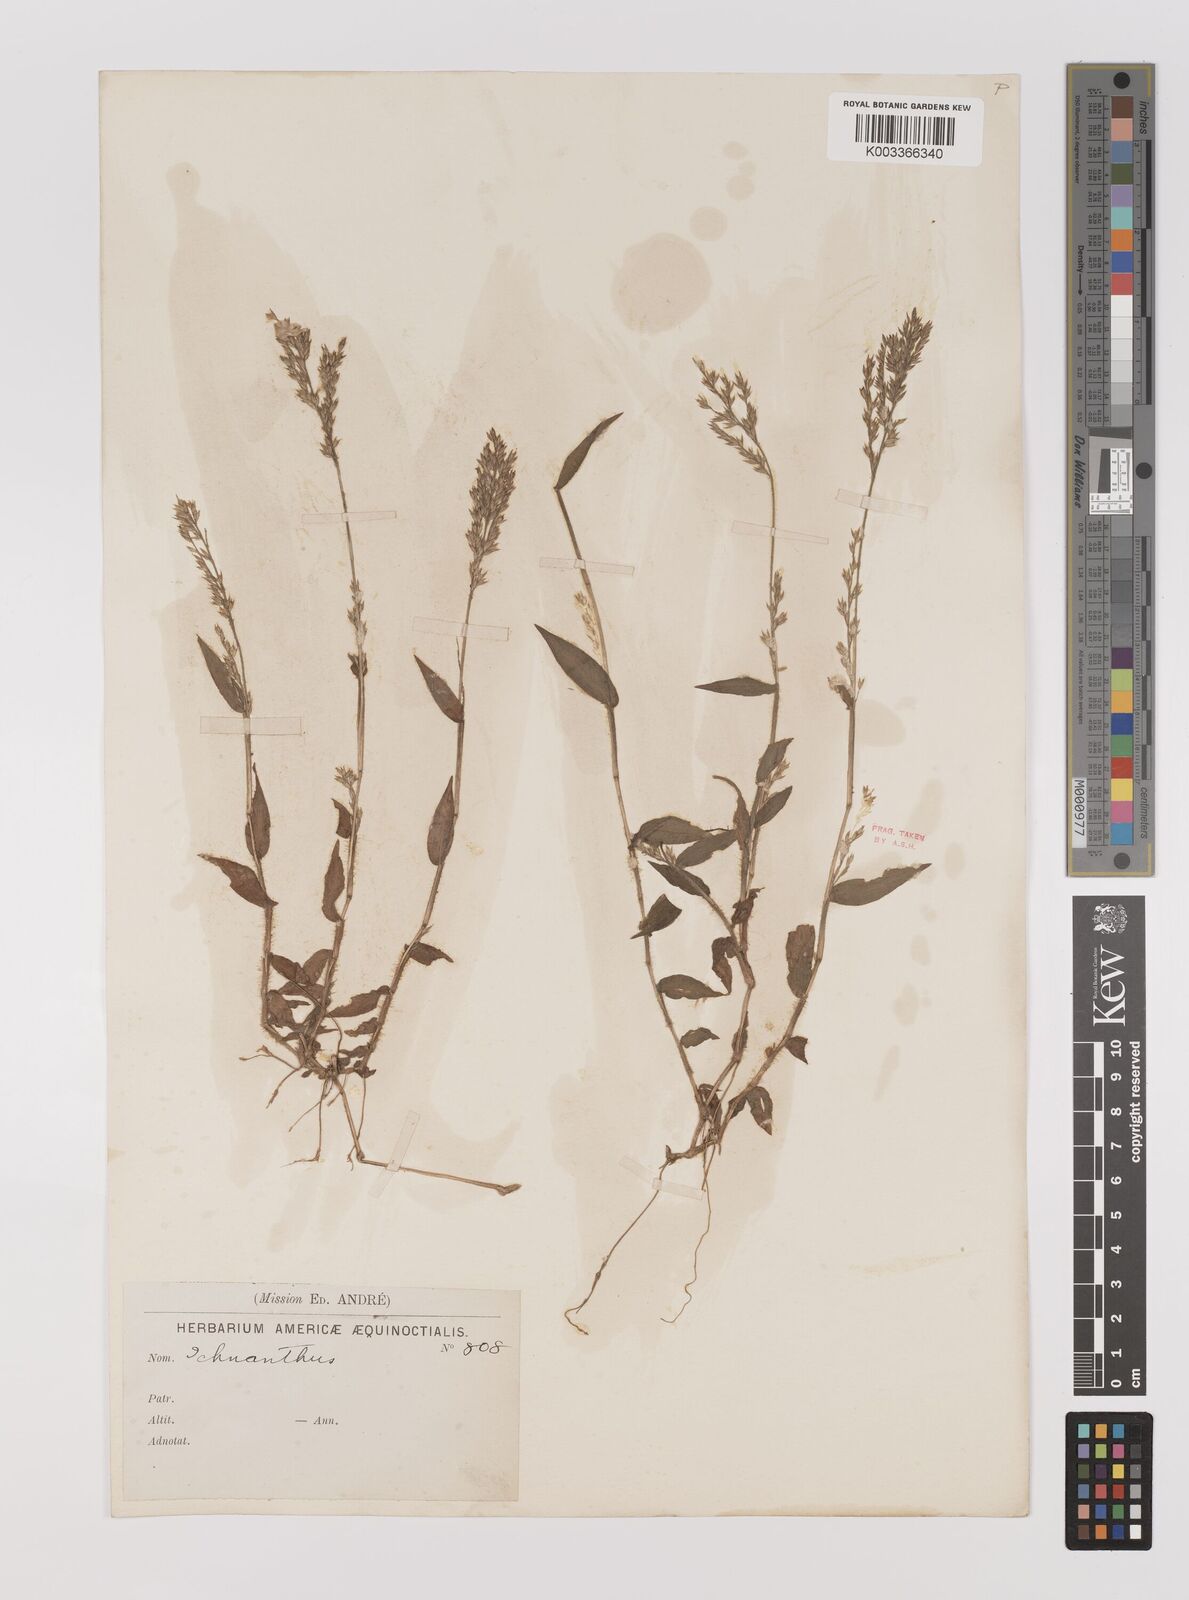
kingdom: Plantae
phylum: Tracheophyta
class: Liliopsida
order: Poales
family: Poaceae
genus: Ichnanthus
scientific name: Ichnanthus tenuis
